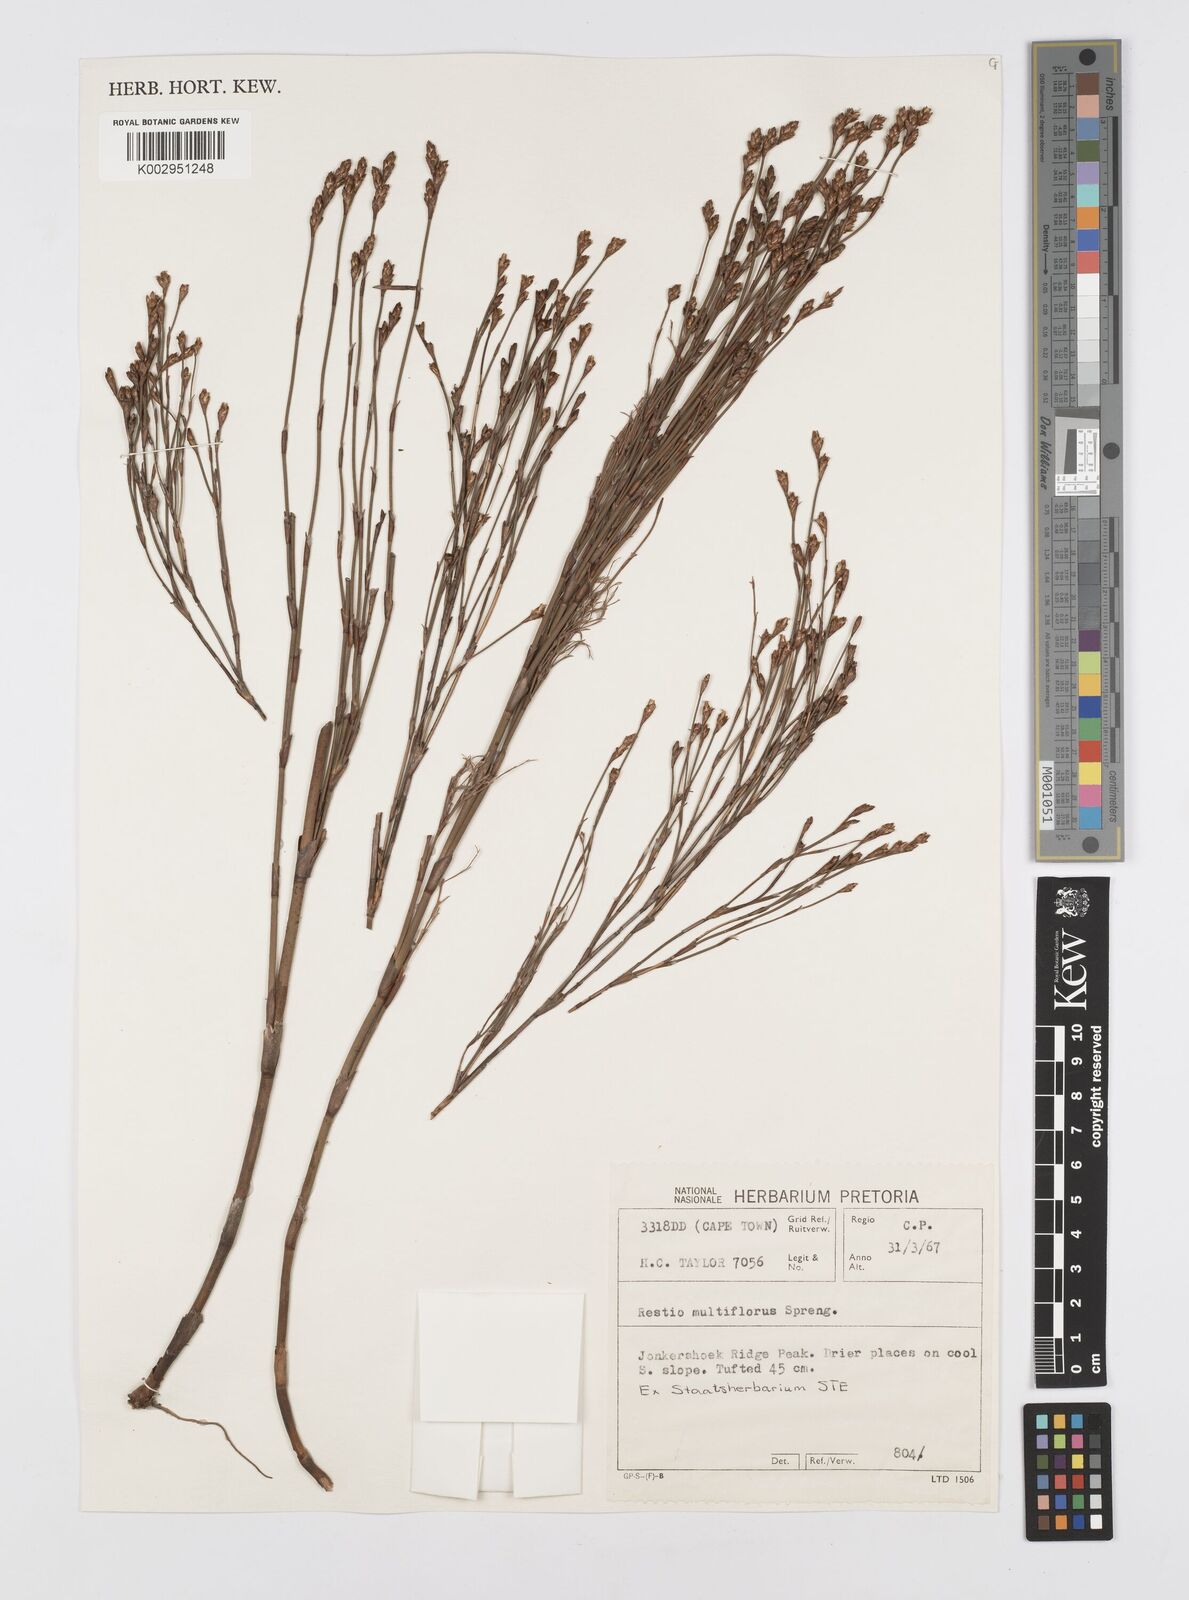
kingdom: Plantae
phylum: Tracheophyta
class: Liliopsida
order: Poales
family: Restionaceae
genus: Restio
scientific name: Restio multiflorus
